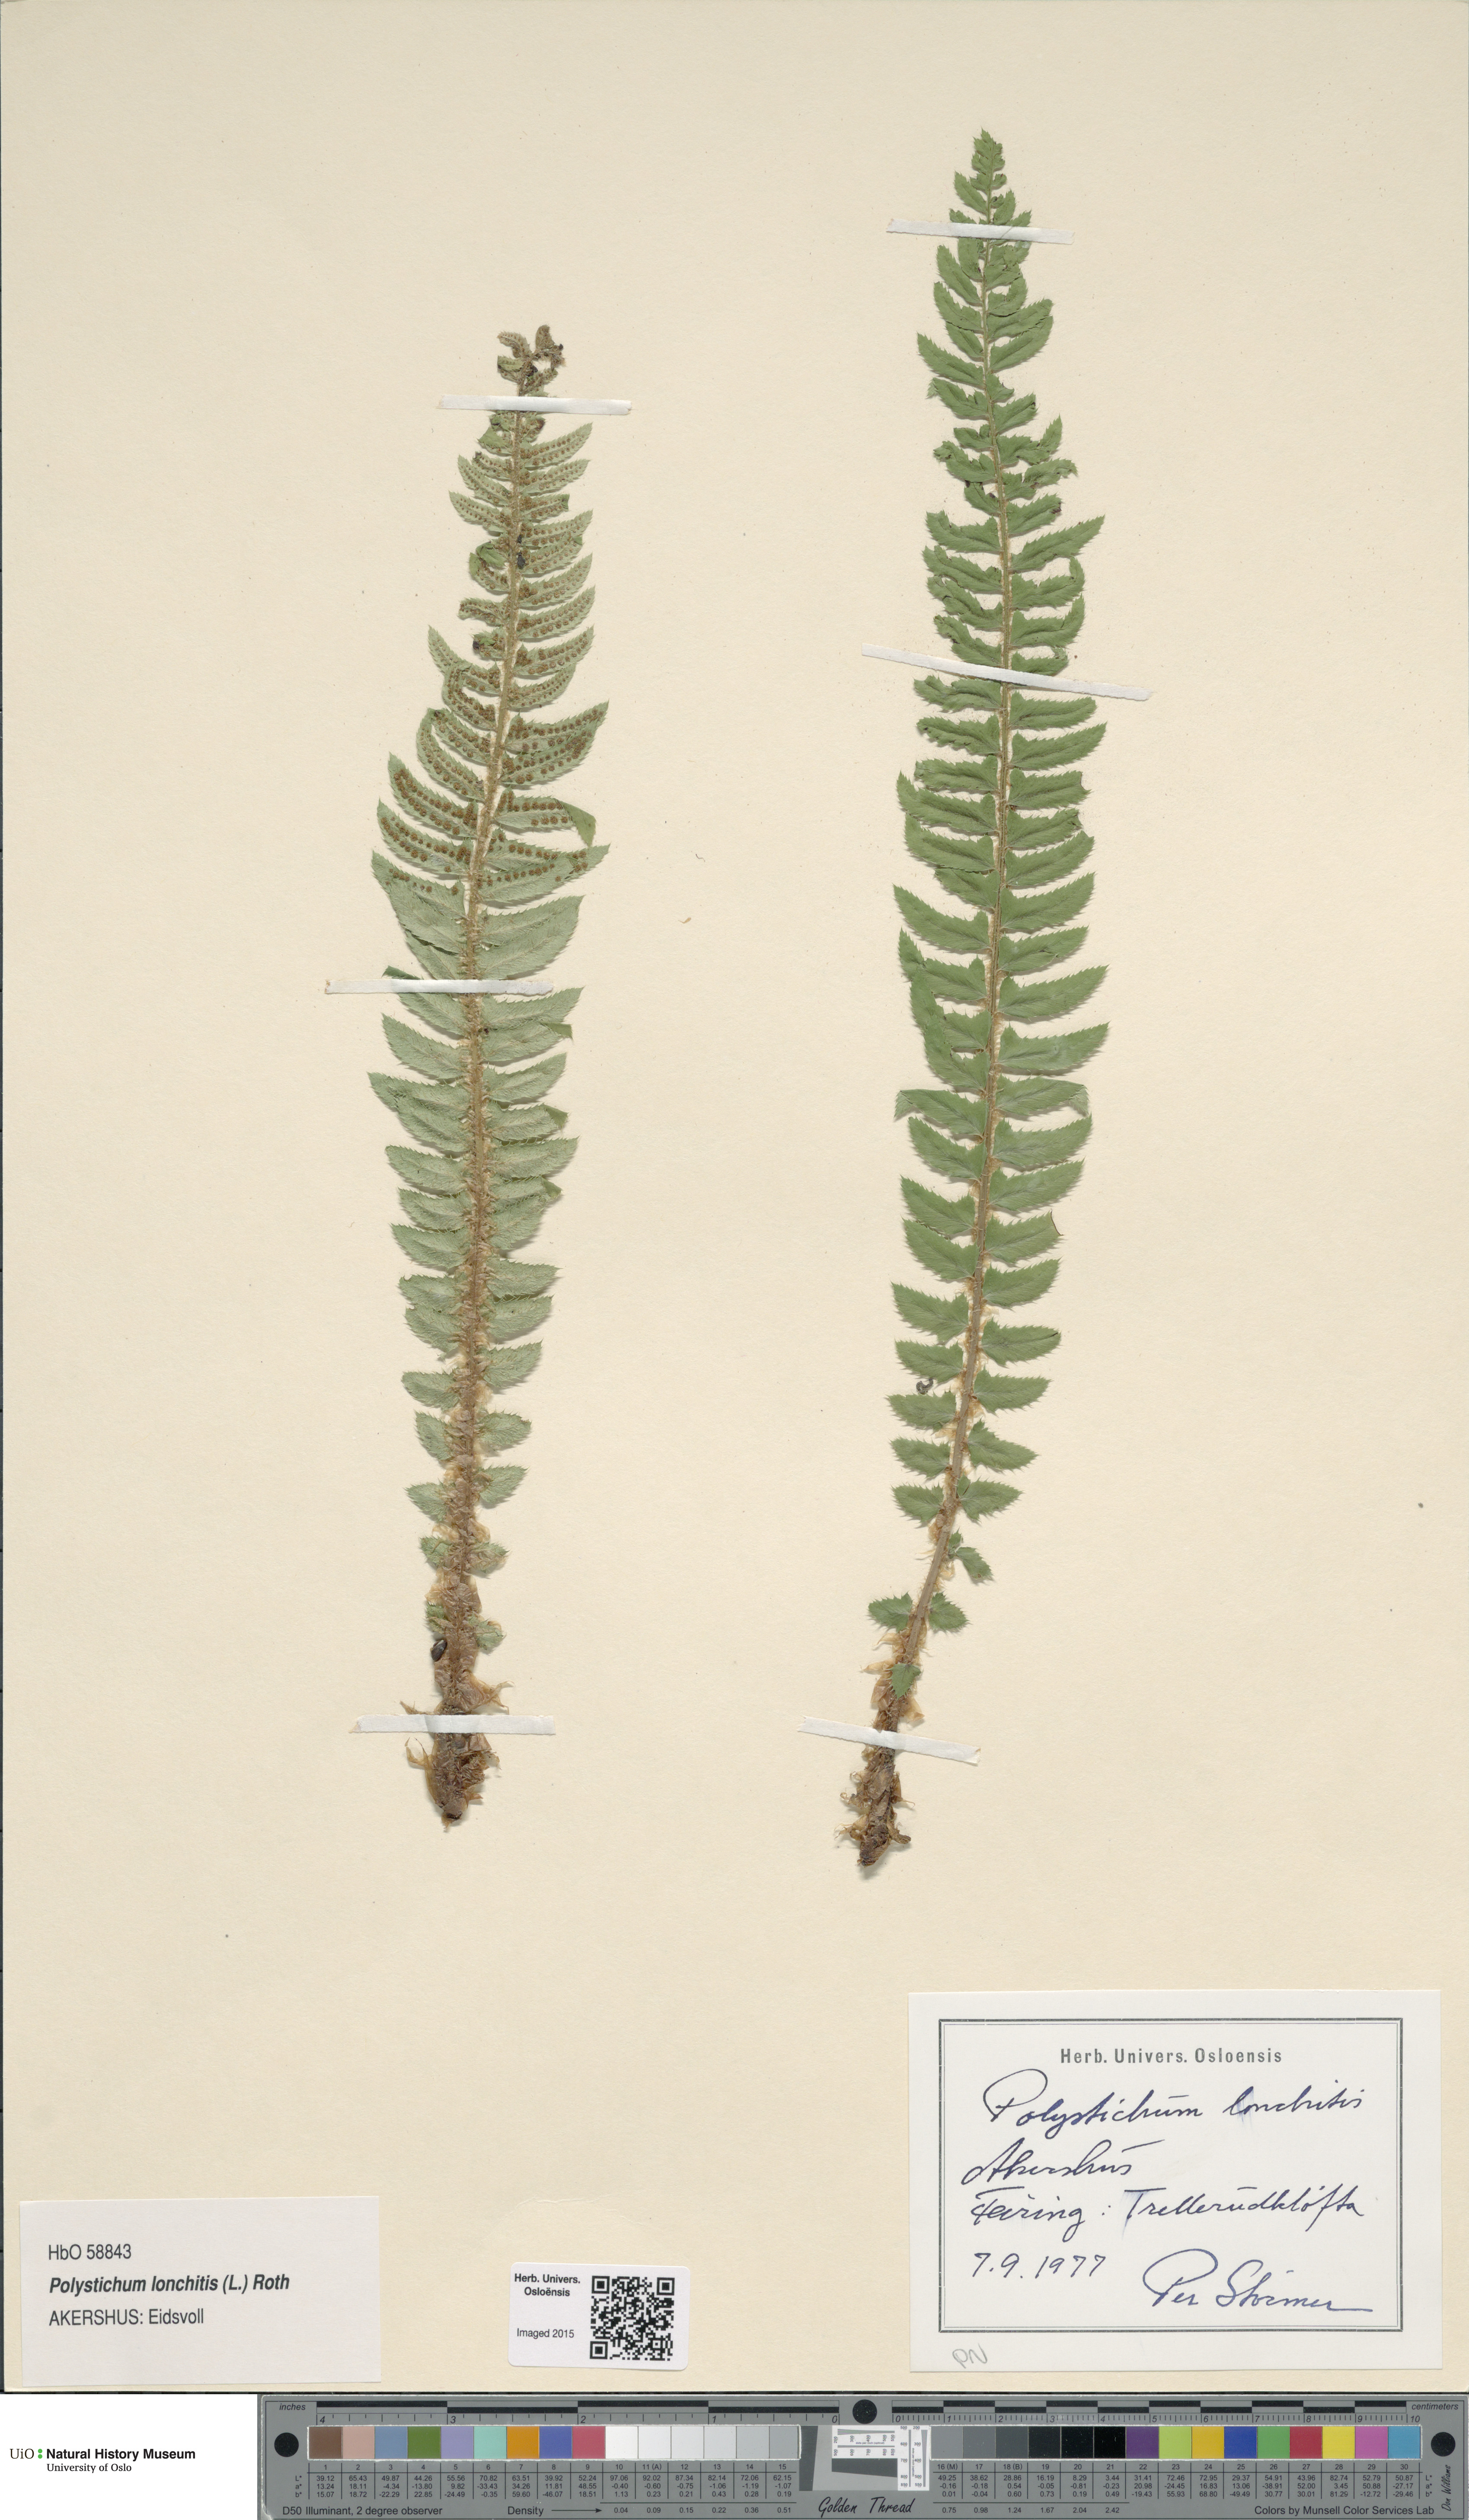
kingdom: Plantae
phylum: Tracheophyta
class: Polypodiopsida
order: Polypodiales
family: Dryopteridaceae
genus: Polystichum
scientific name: Polystichum lonchitis
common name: Holly fern
